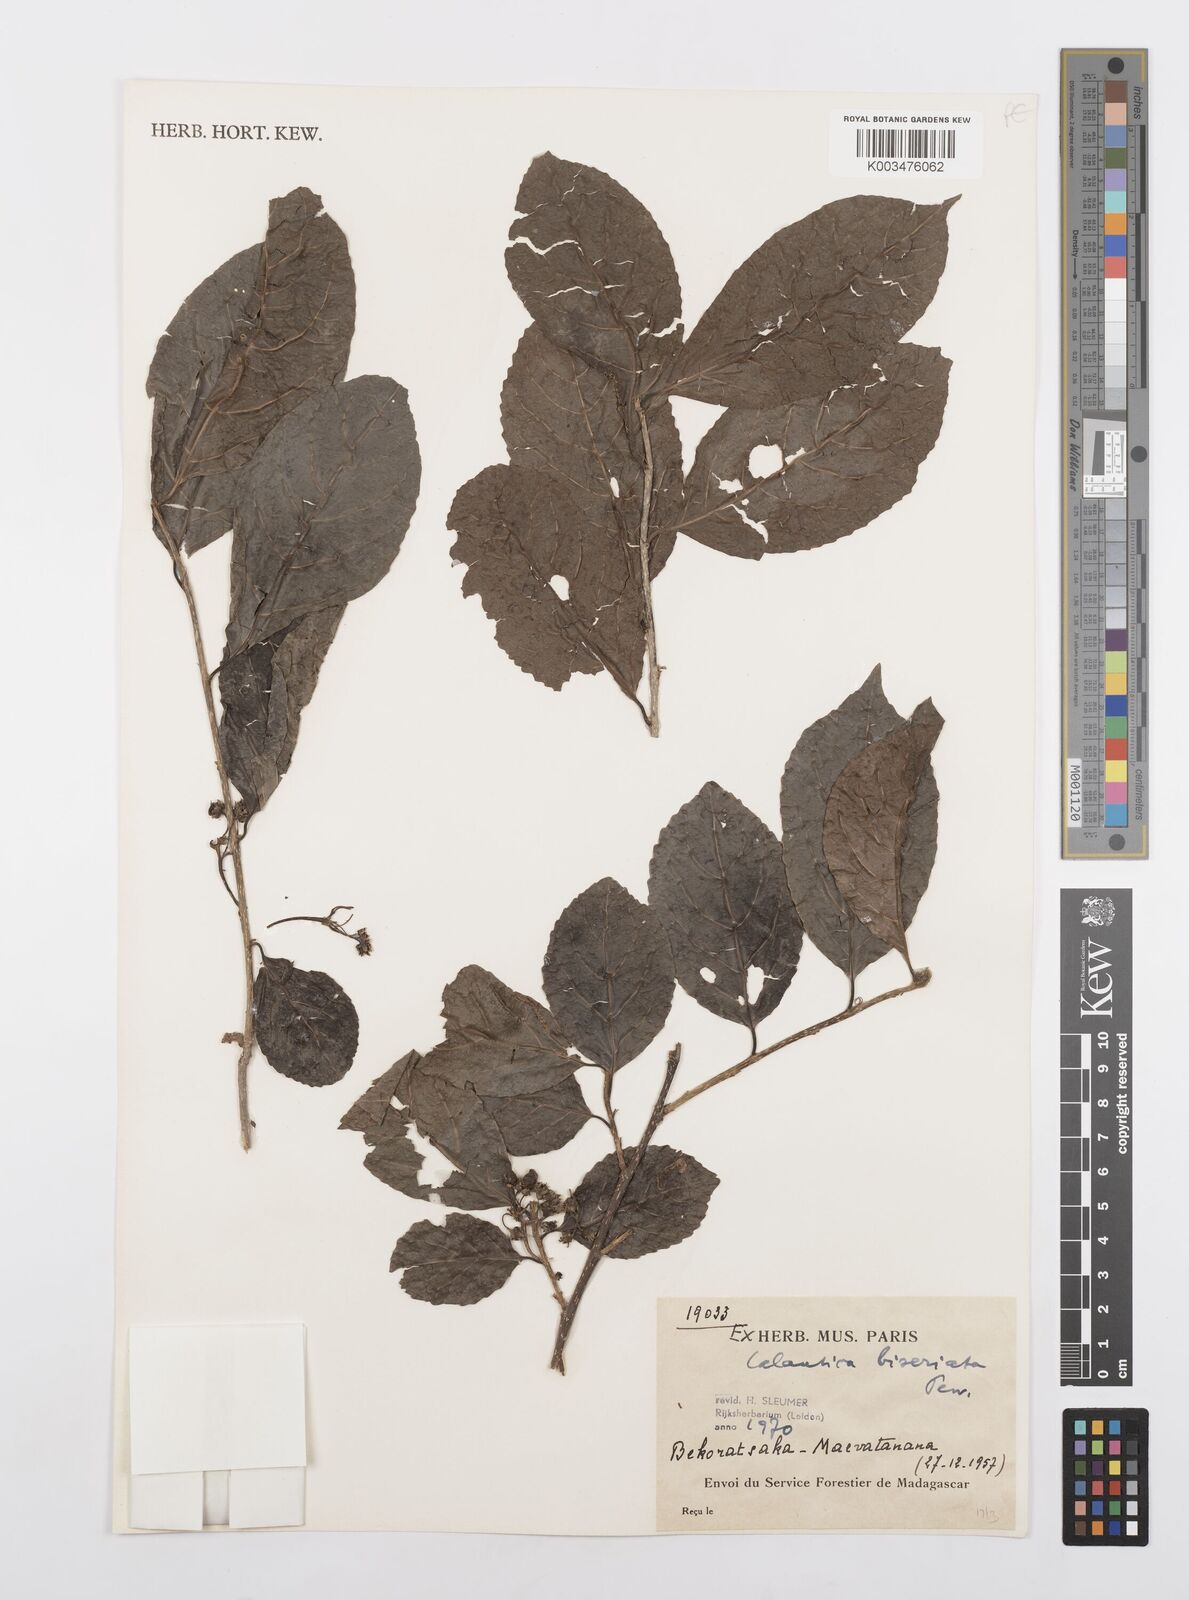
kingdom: Plantae
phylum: Tracheophyta
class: Magnoliopsida
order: Malpighiales
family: Salicaceae
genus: Calantica
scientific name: Calantica biseriata
